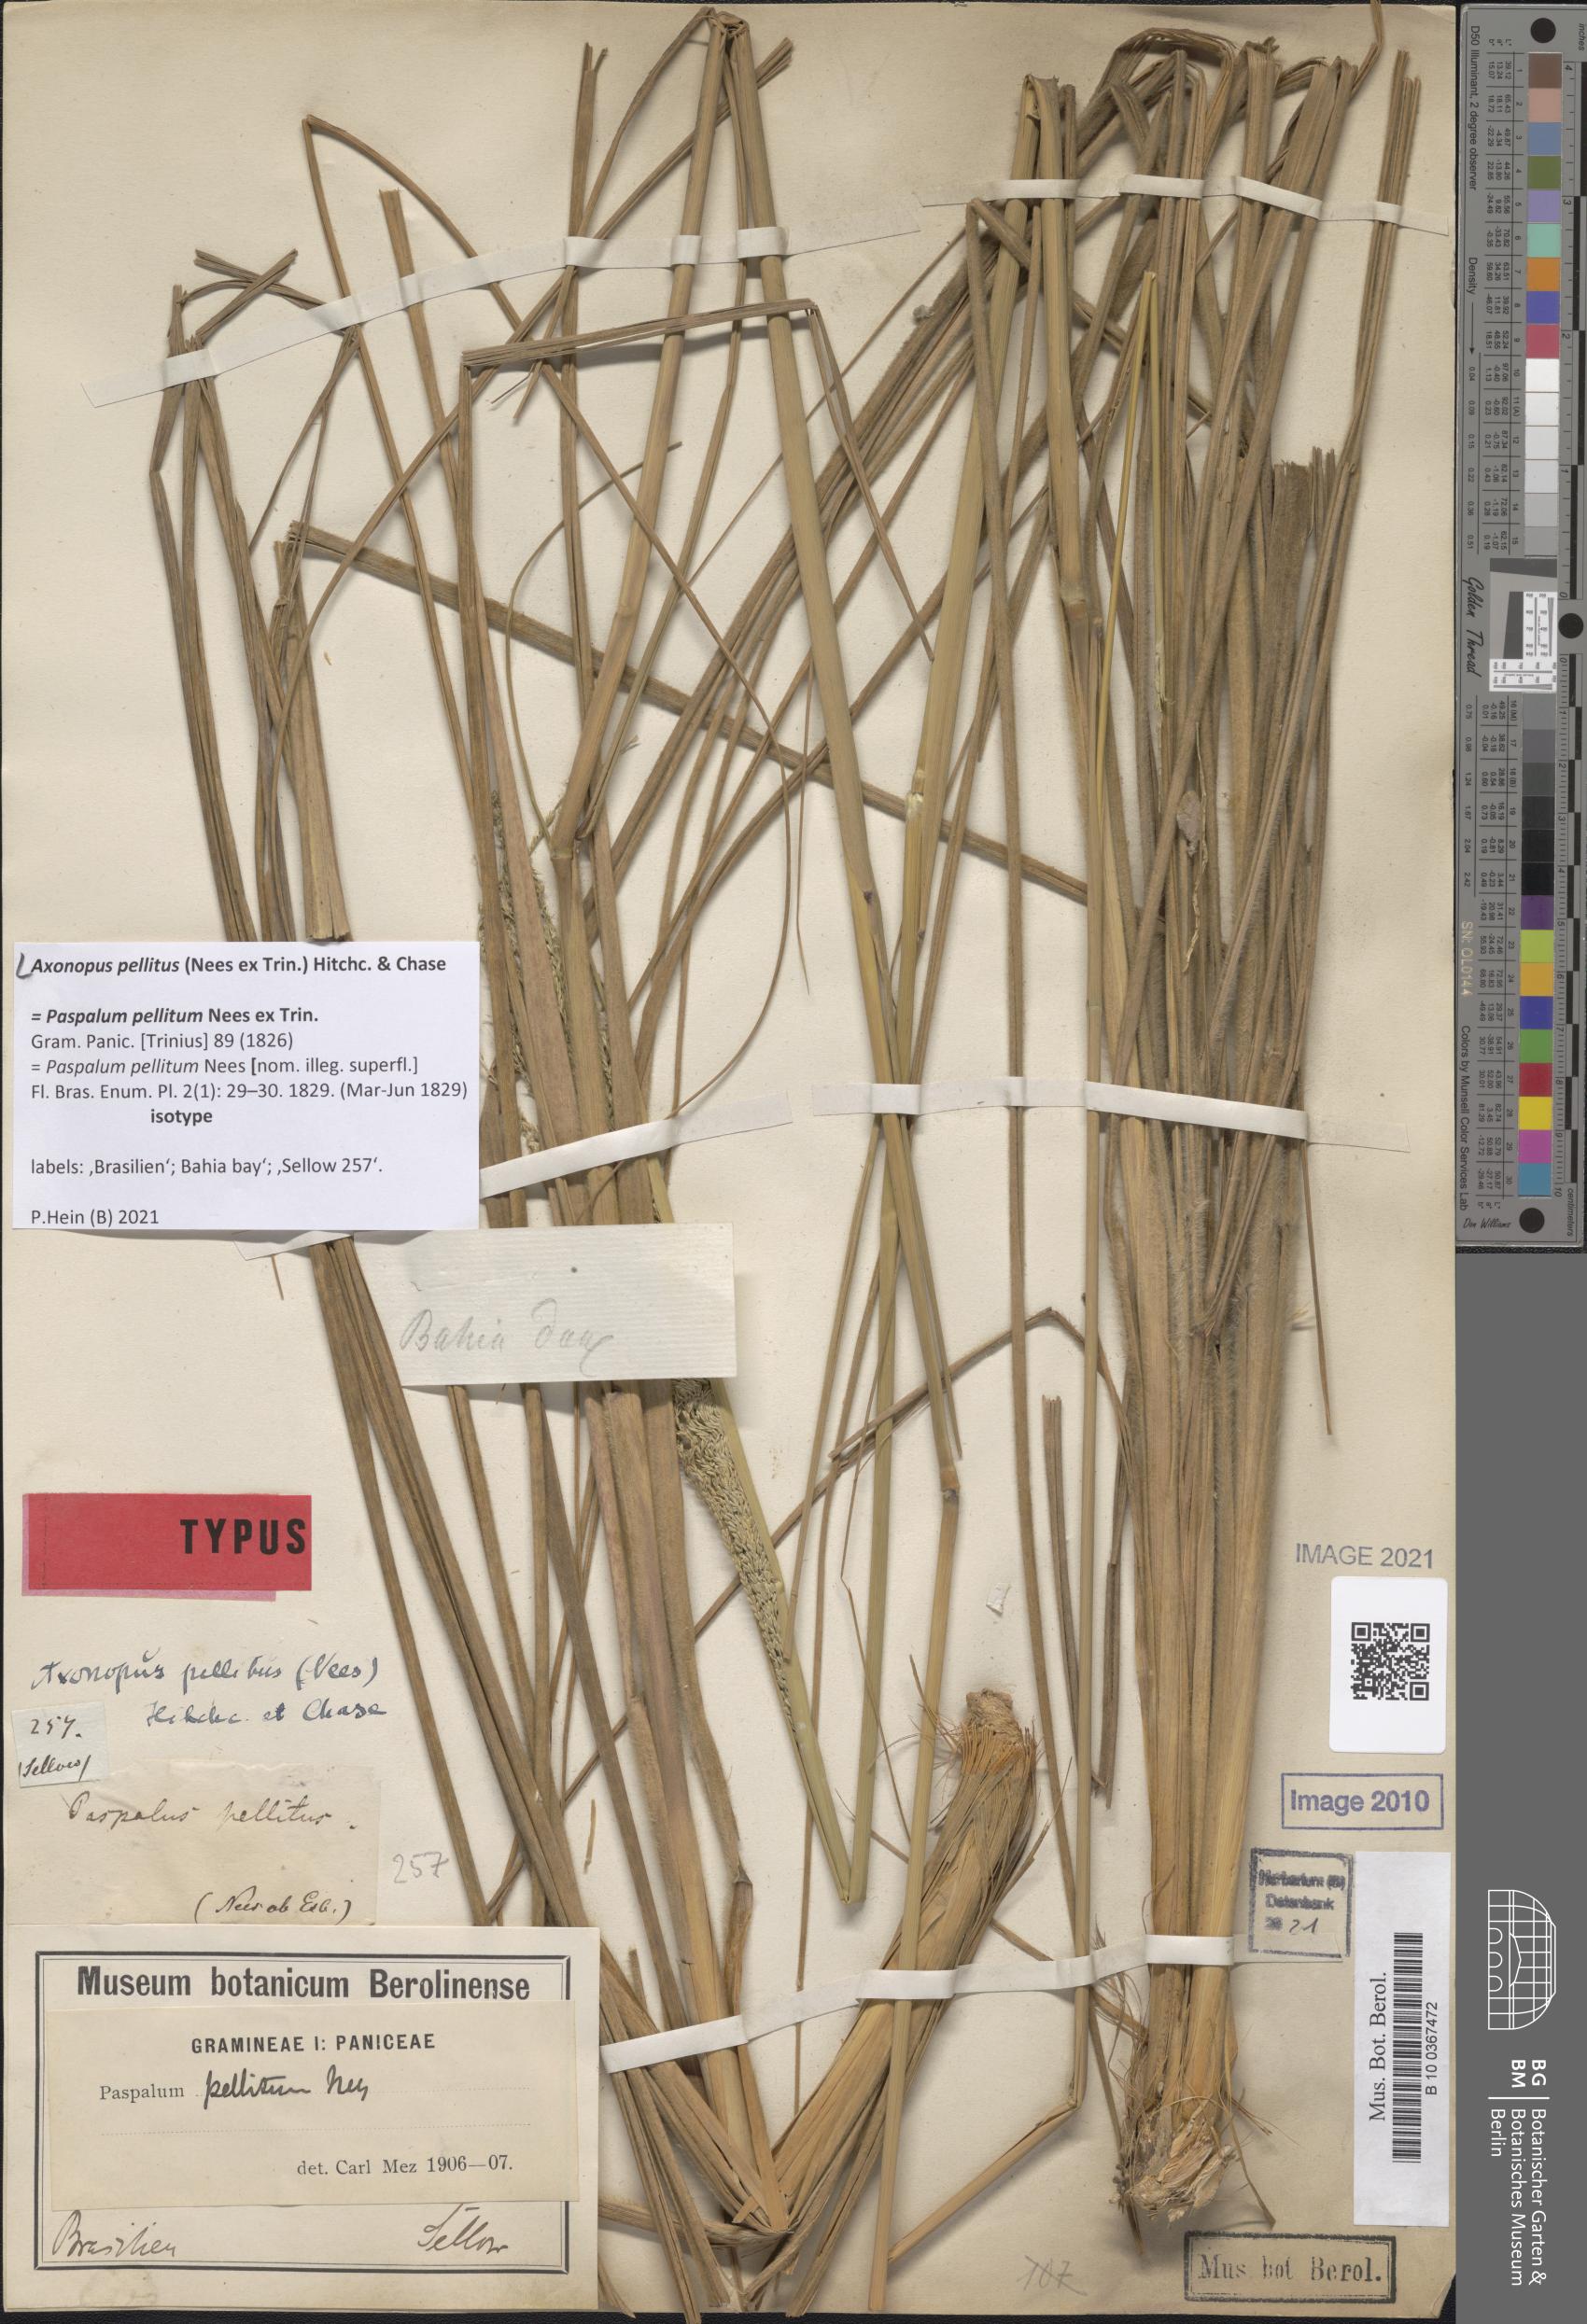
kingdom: Plantae
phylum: Tracheophyta
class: Liliopsida
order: Poales
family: Poaceae
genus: Axonopus
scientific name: Axonopus siccus
